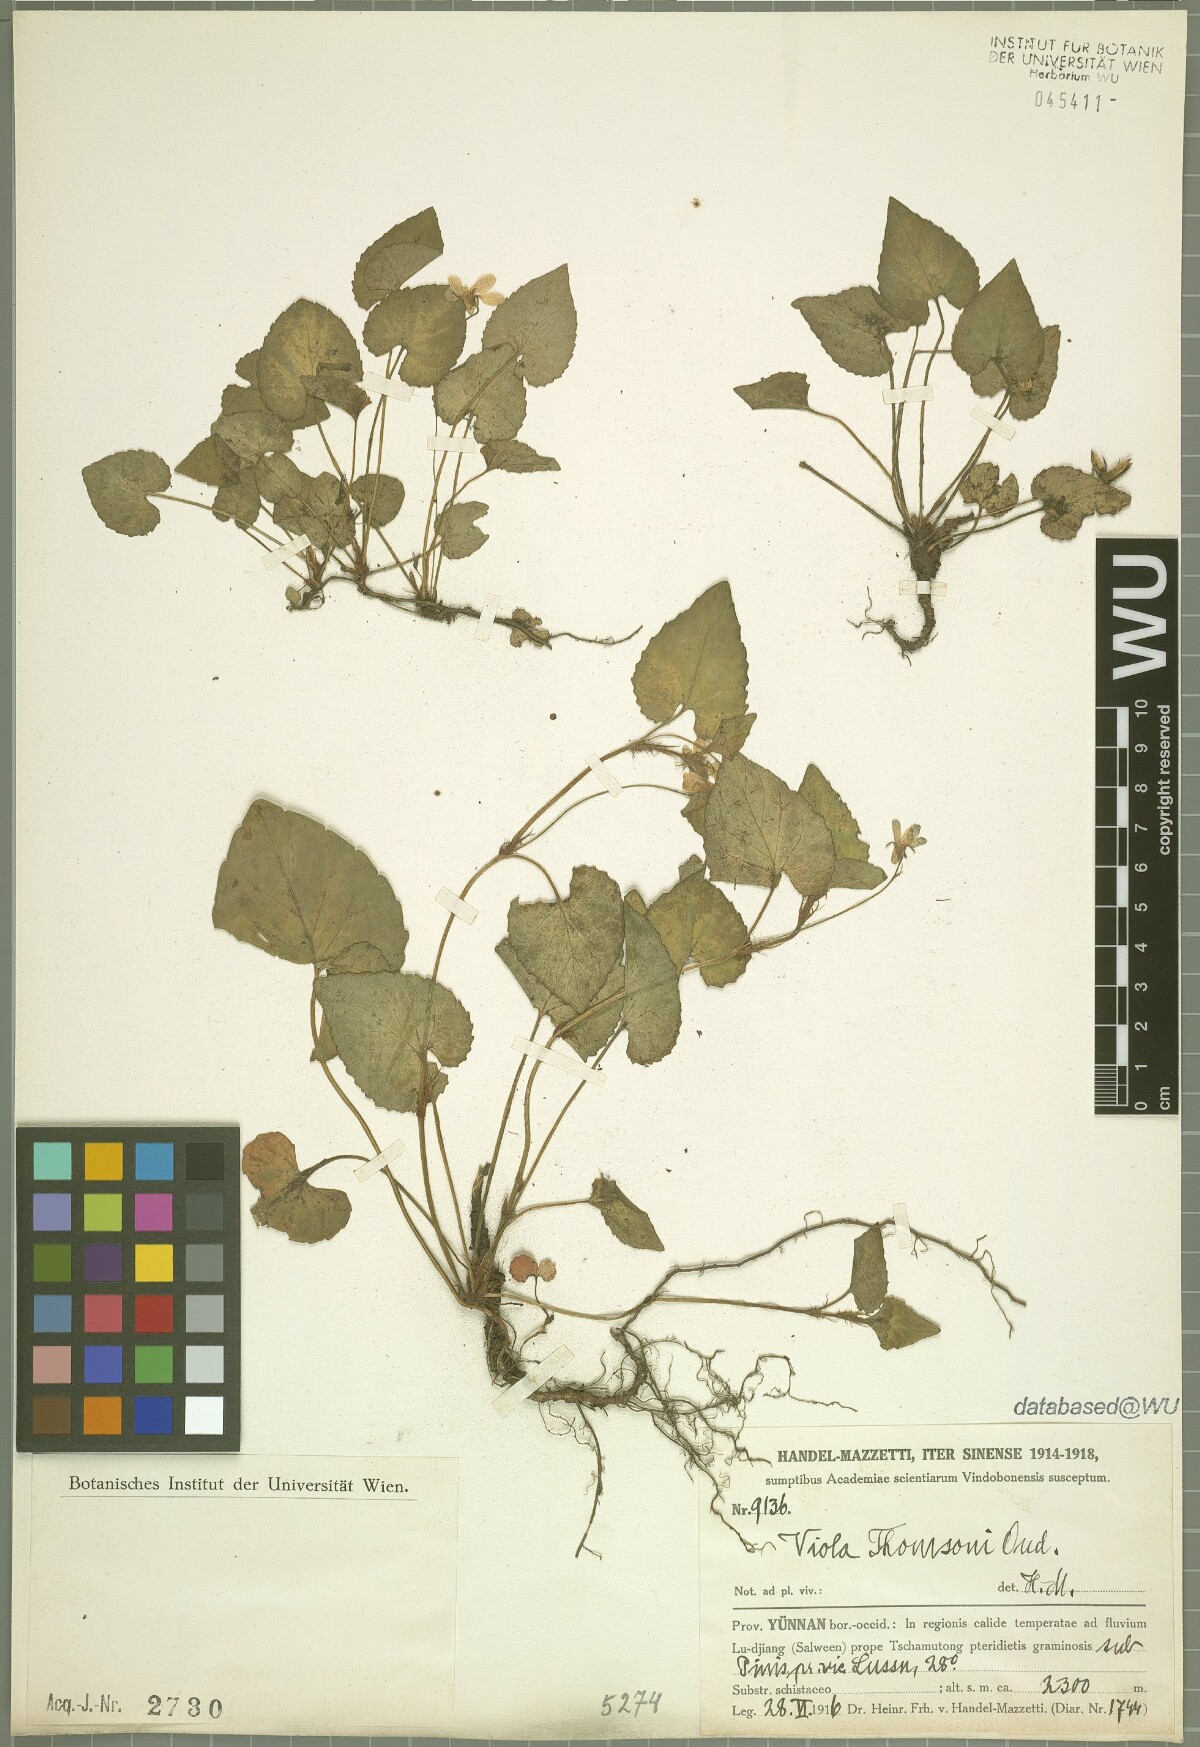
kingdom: Plantae
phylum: Tracheophyta
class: Magnoliopsida
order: Malpighiales
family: Violaceae
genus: Viola
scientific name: Viola thomsonii
